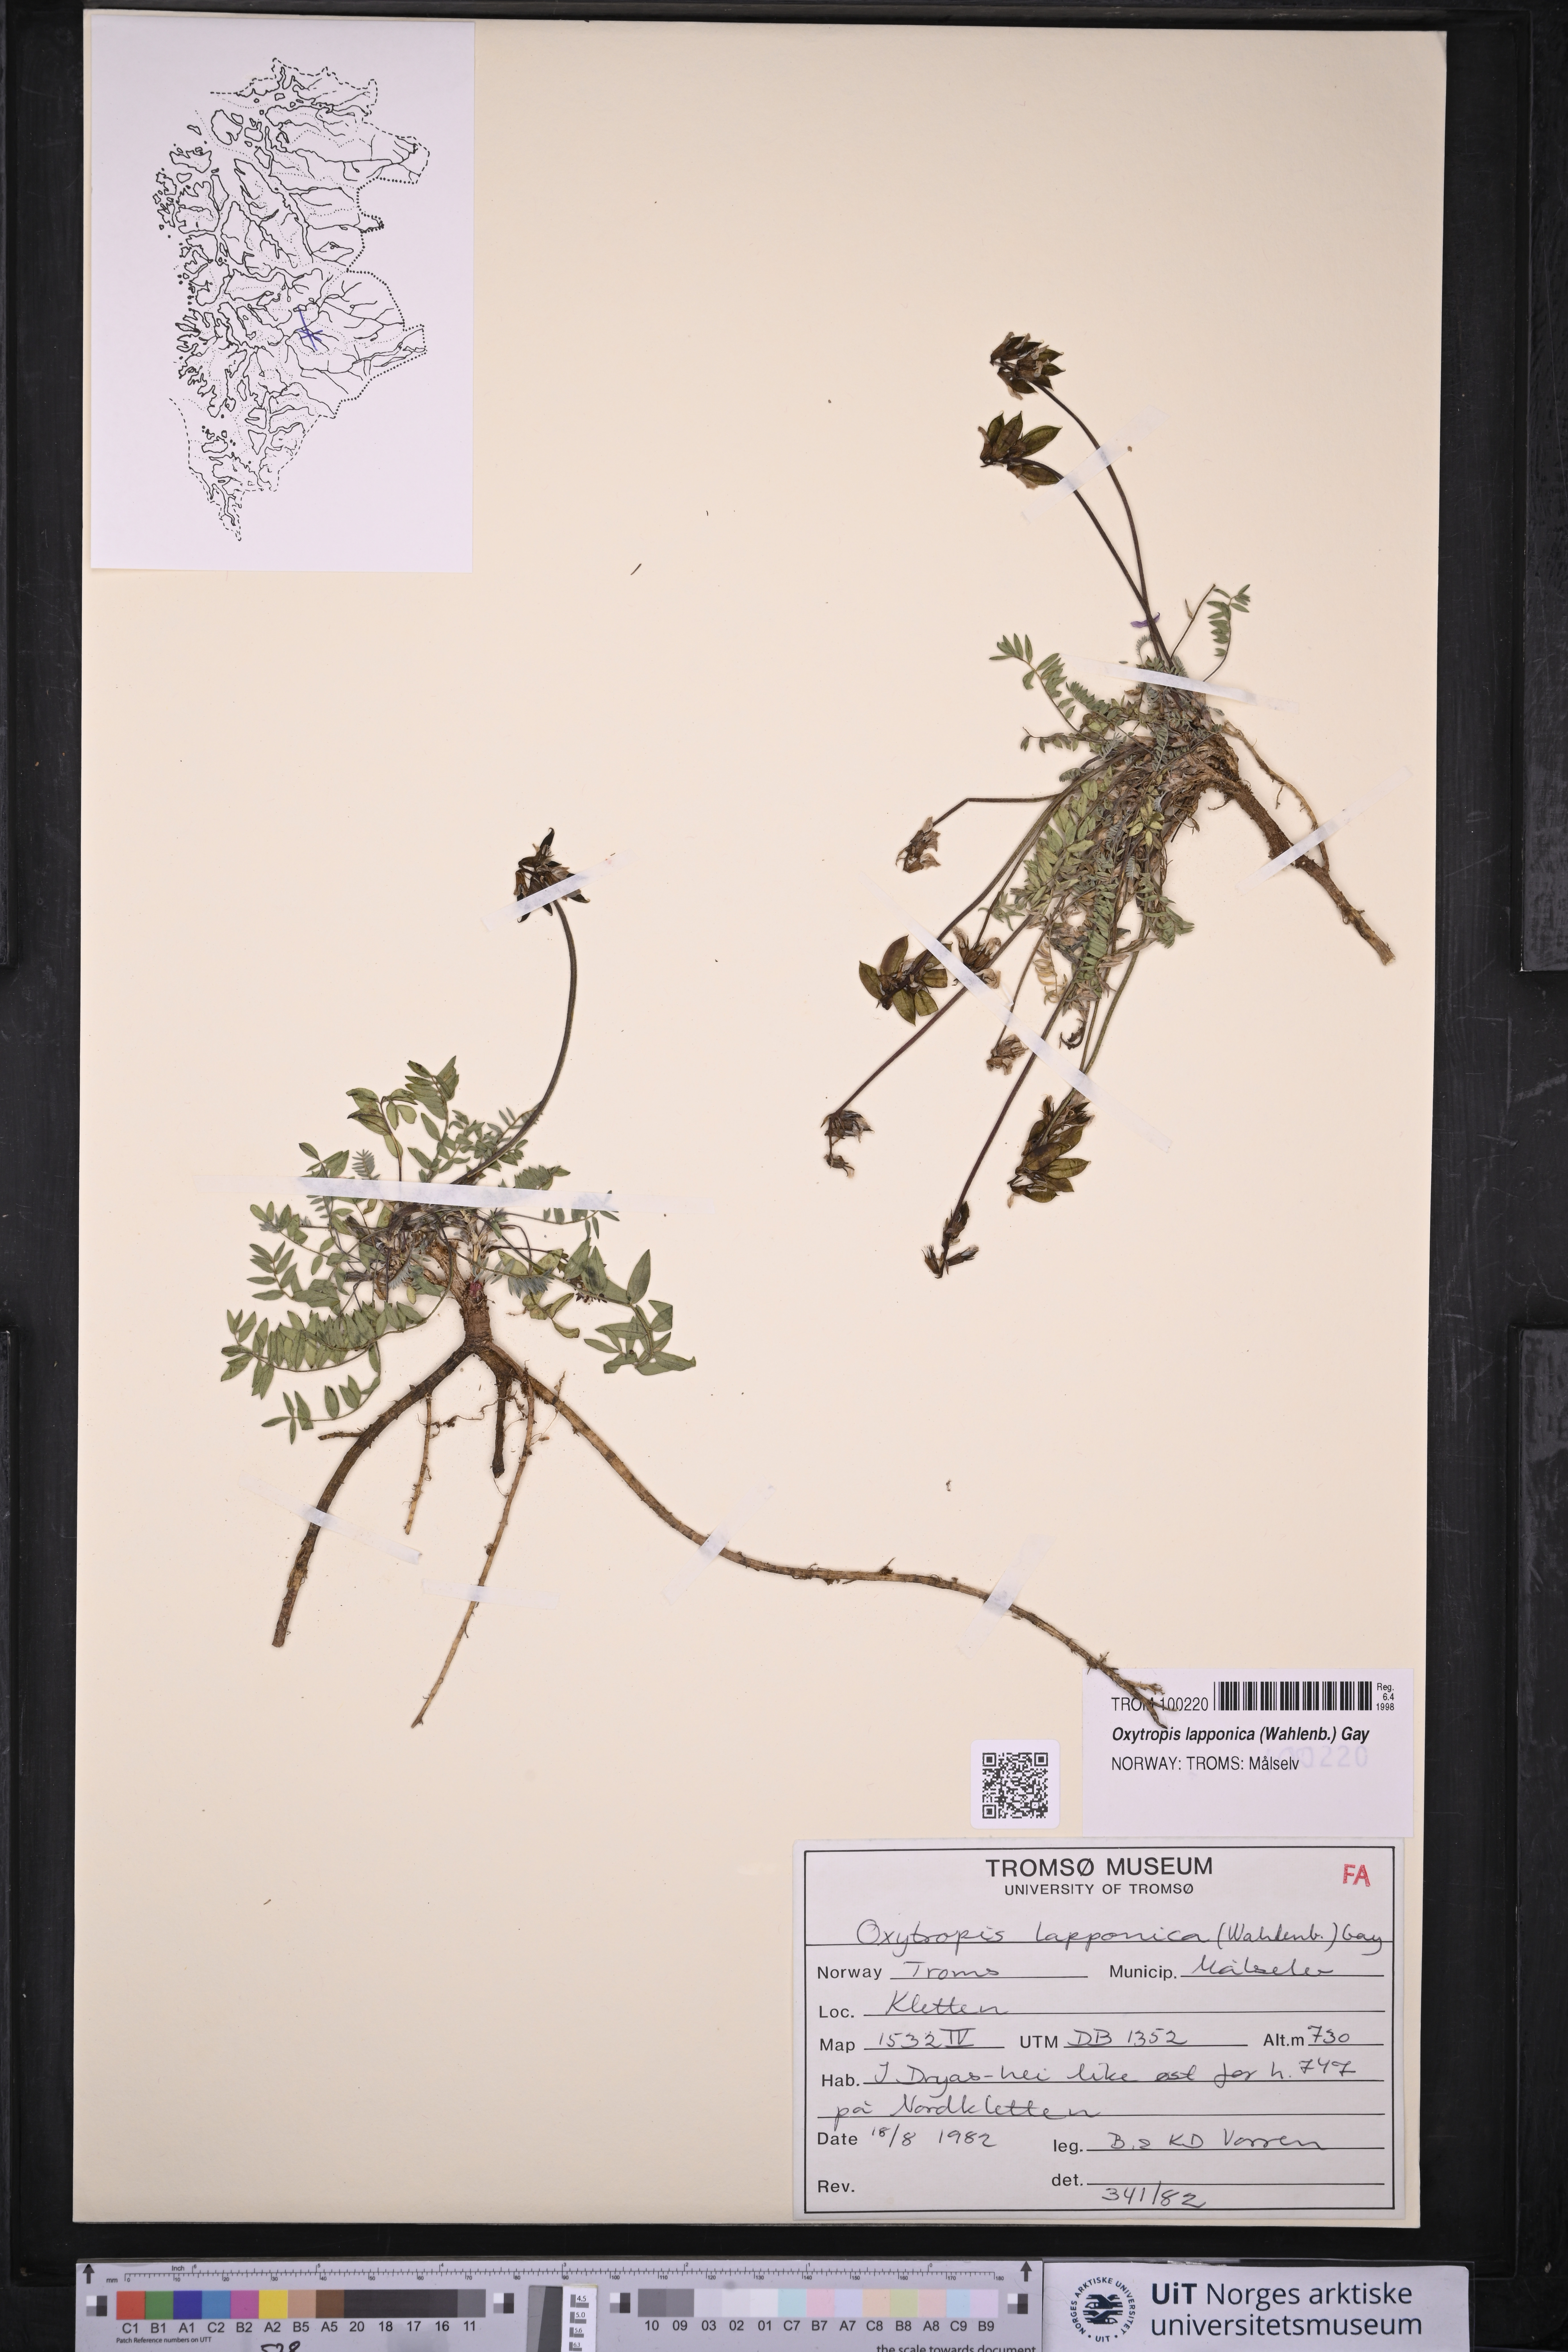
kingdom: Plantae
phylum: Tracheophyta
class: Magnoliopsida
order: Fabales
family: Fabaceae
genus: Oxytropis
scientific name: Oxytropis lapponica
